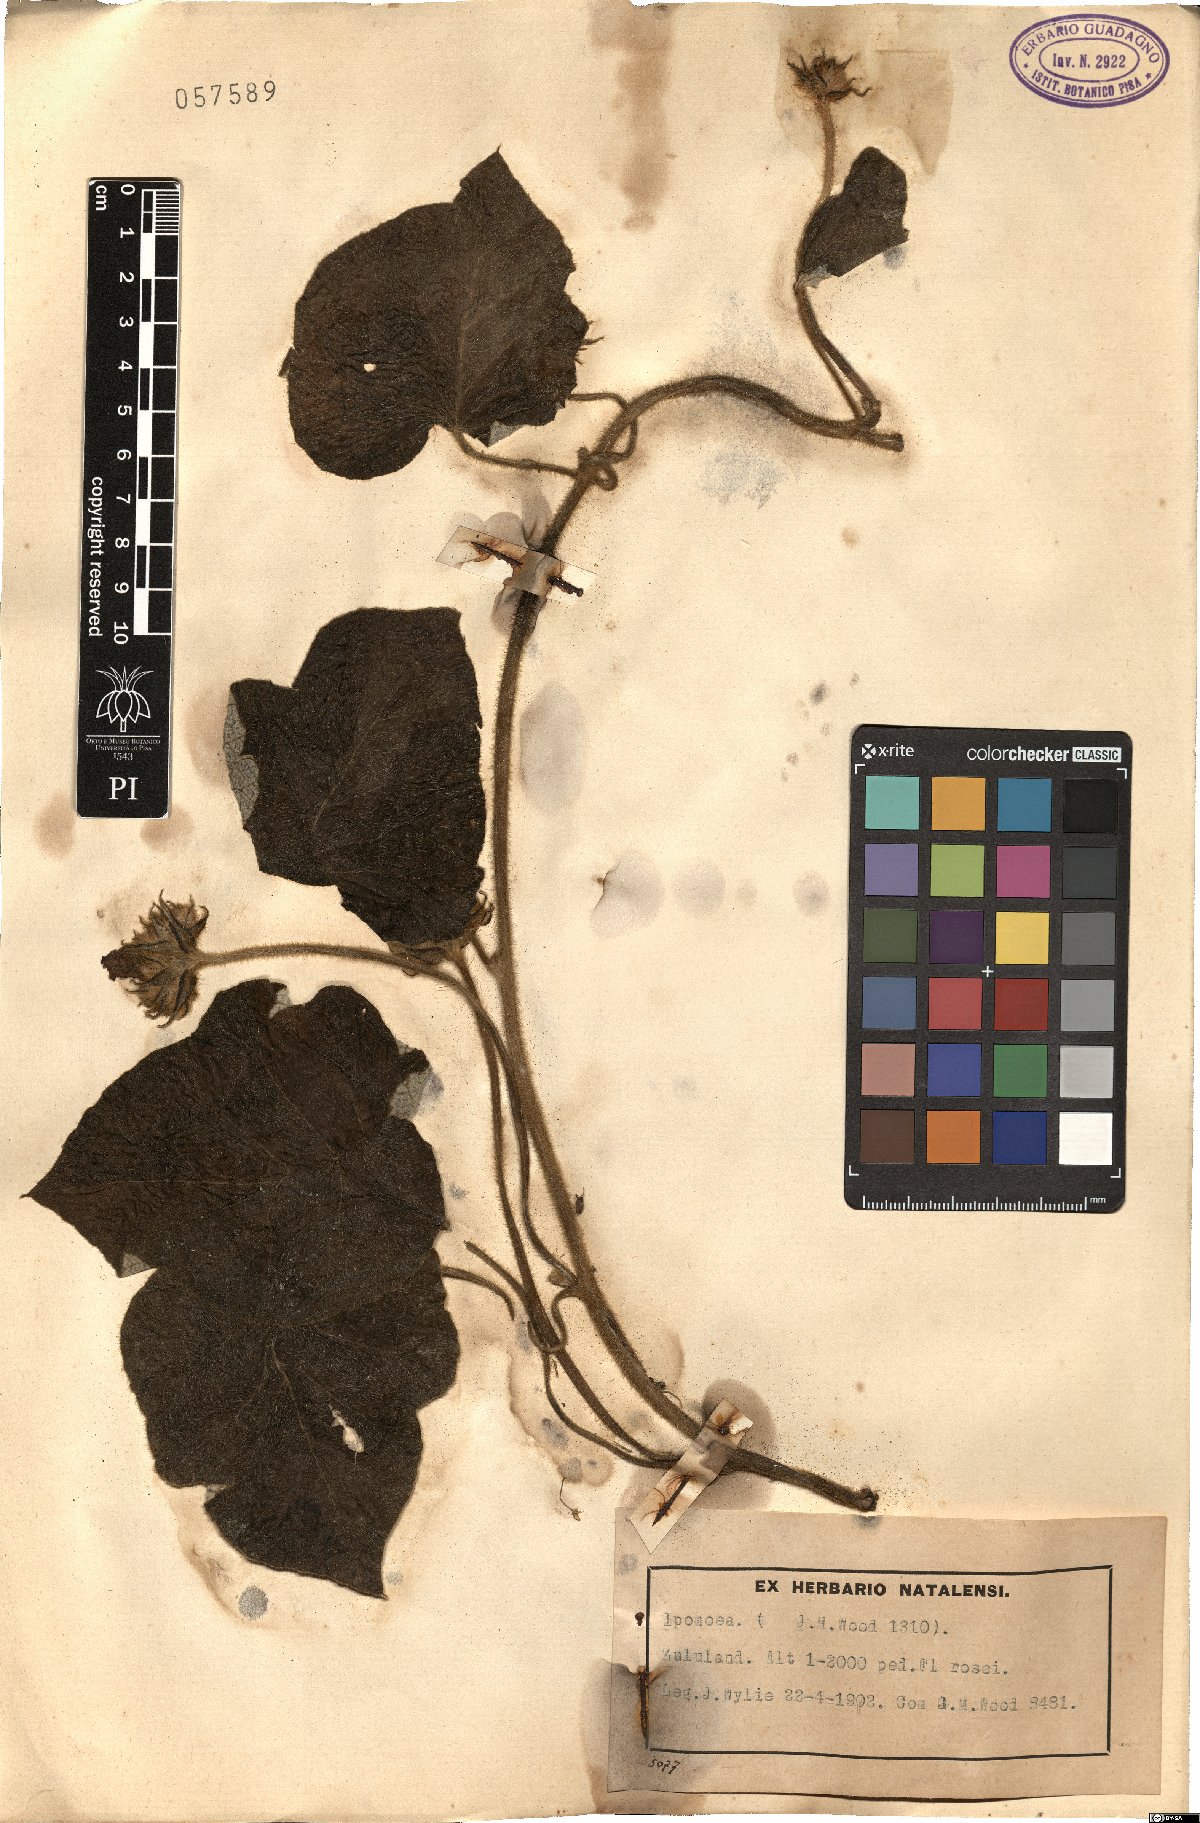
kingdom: Plantae
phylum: Tracheophyta
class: Magnoliopsida
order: Solanales
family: Convolvulaceae
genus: Ipomoea
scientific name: Ipomoea
